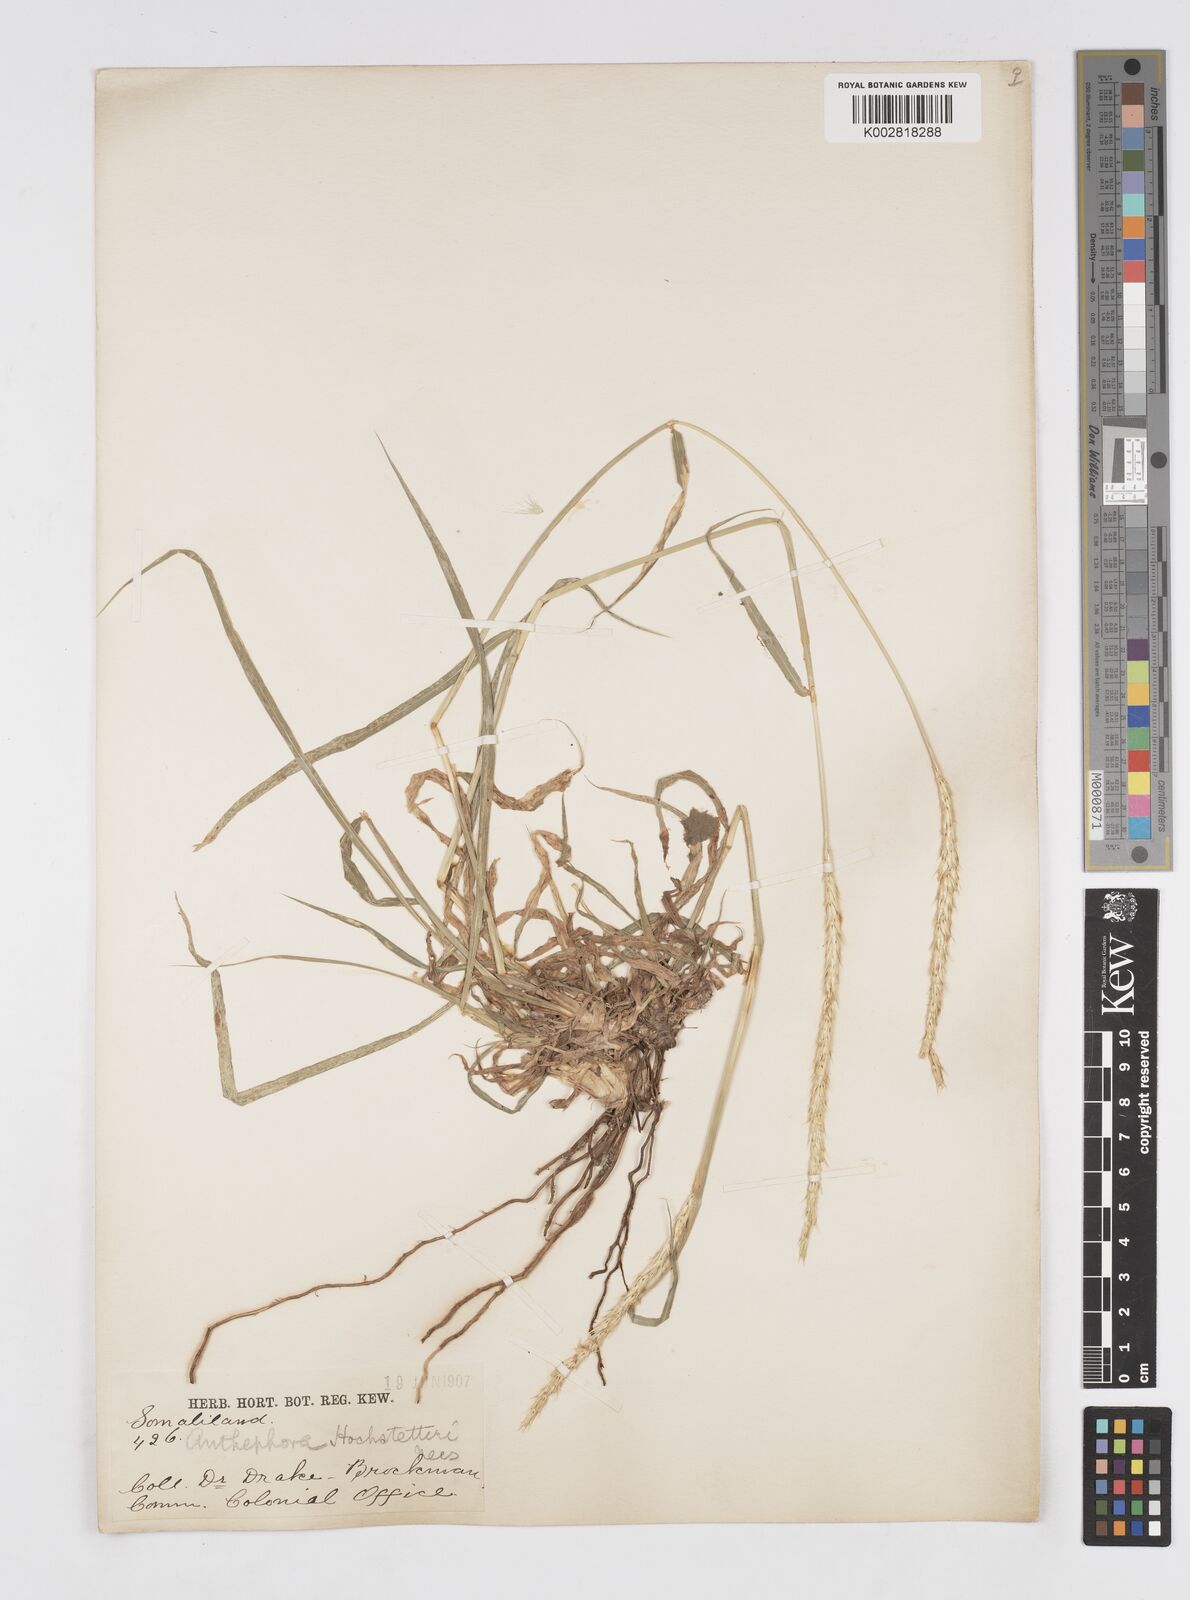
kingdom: Plantae
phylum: Tracheophyta
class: Liliopsida
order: Poales
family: Poaceae
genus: Anthephora
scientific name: Anthephora pubescens
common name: Wool grass
